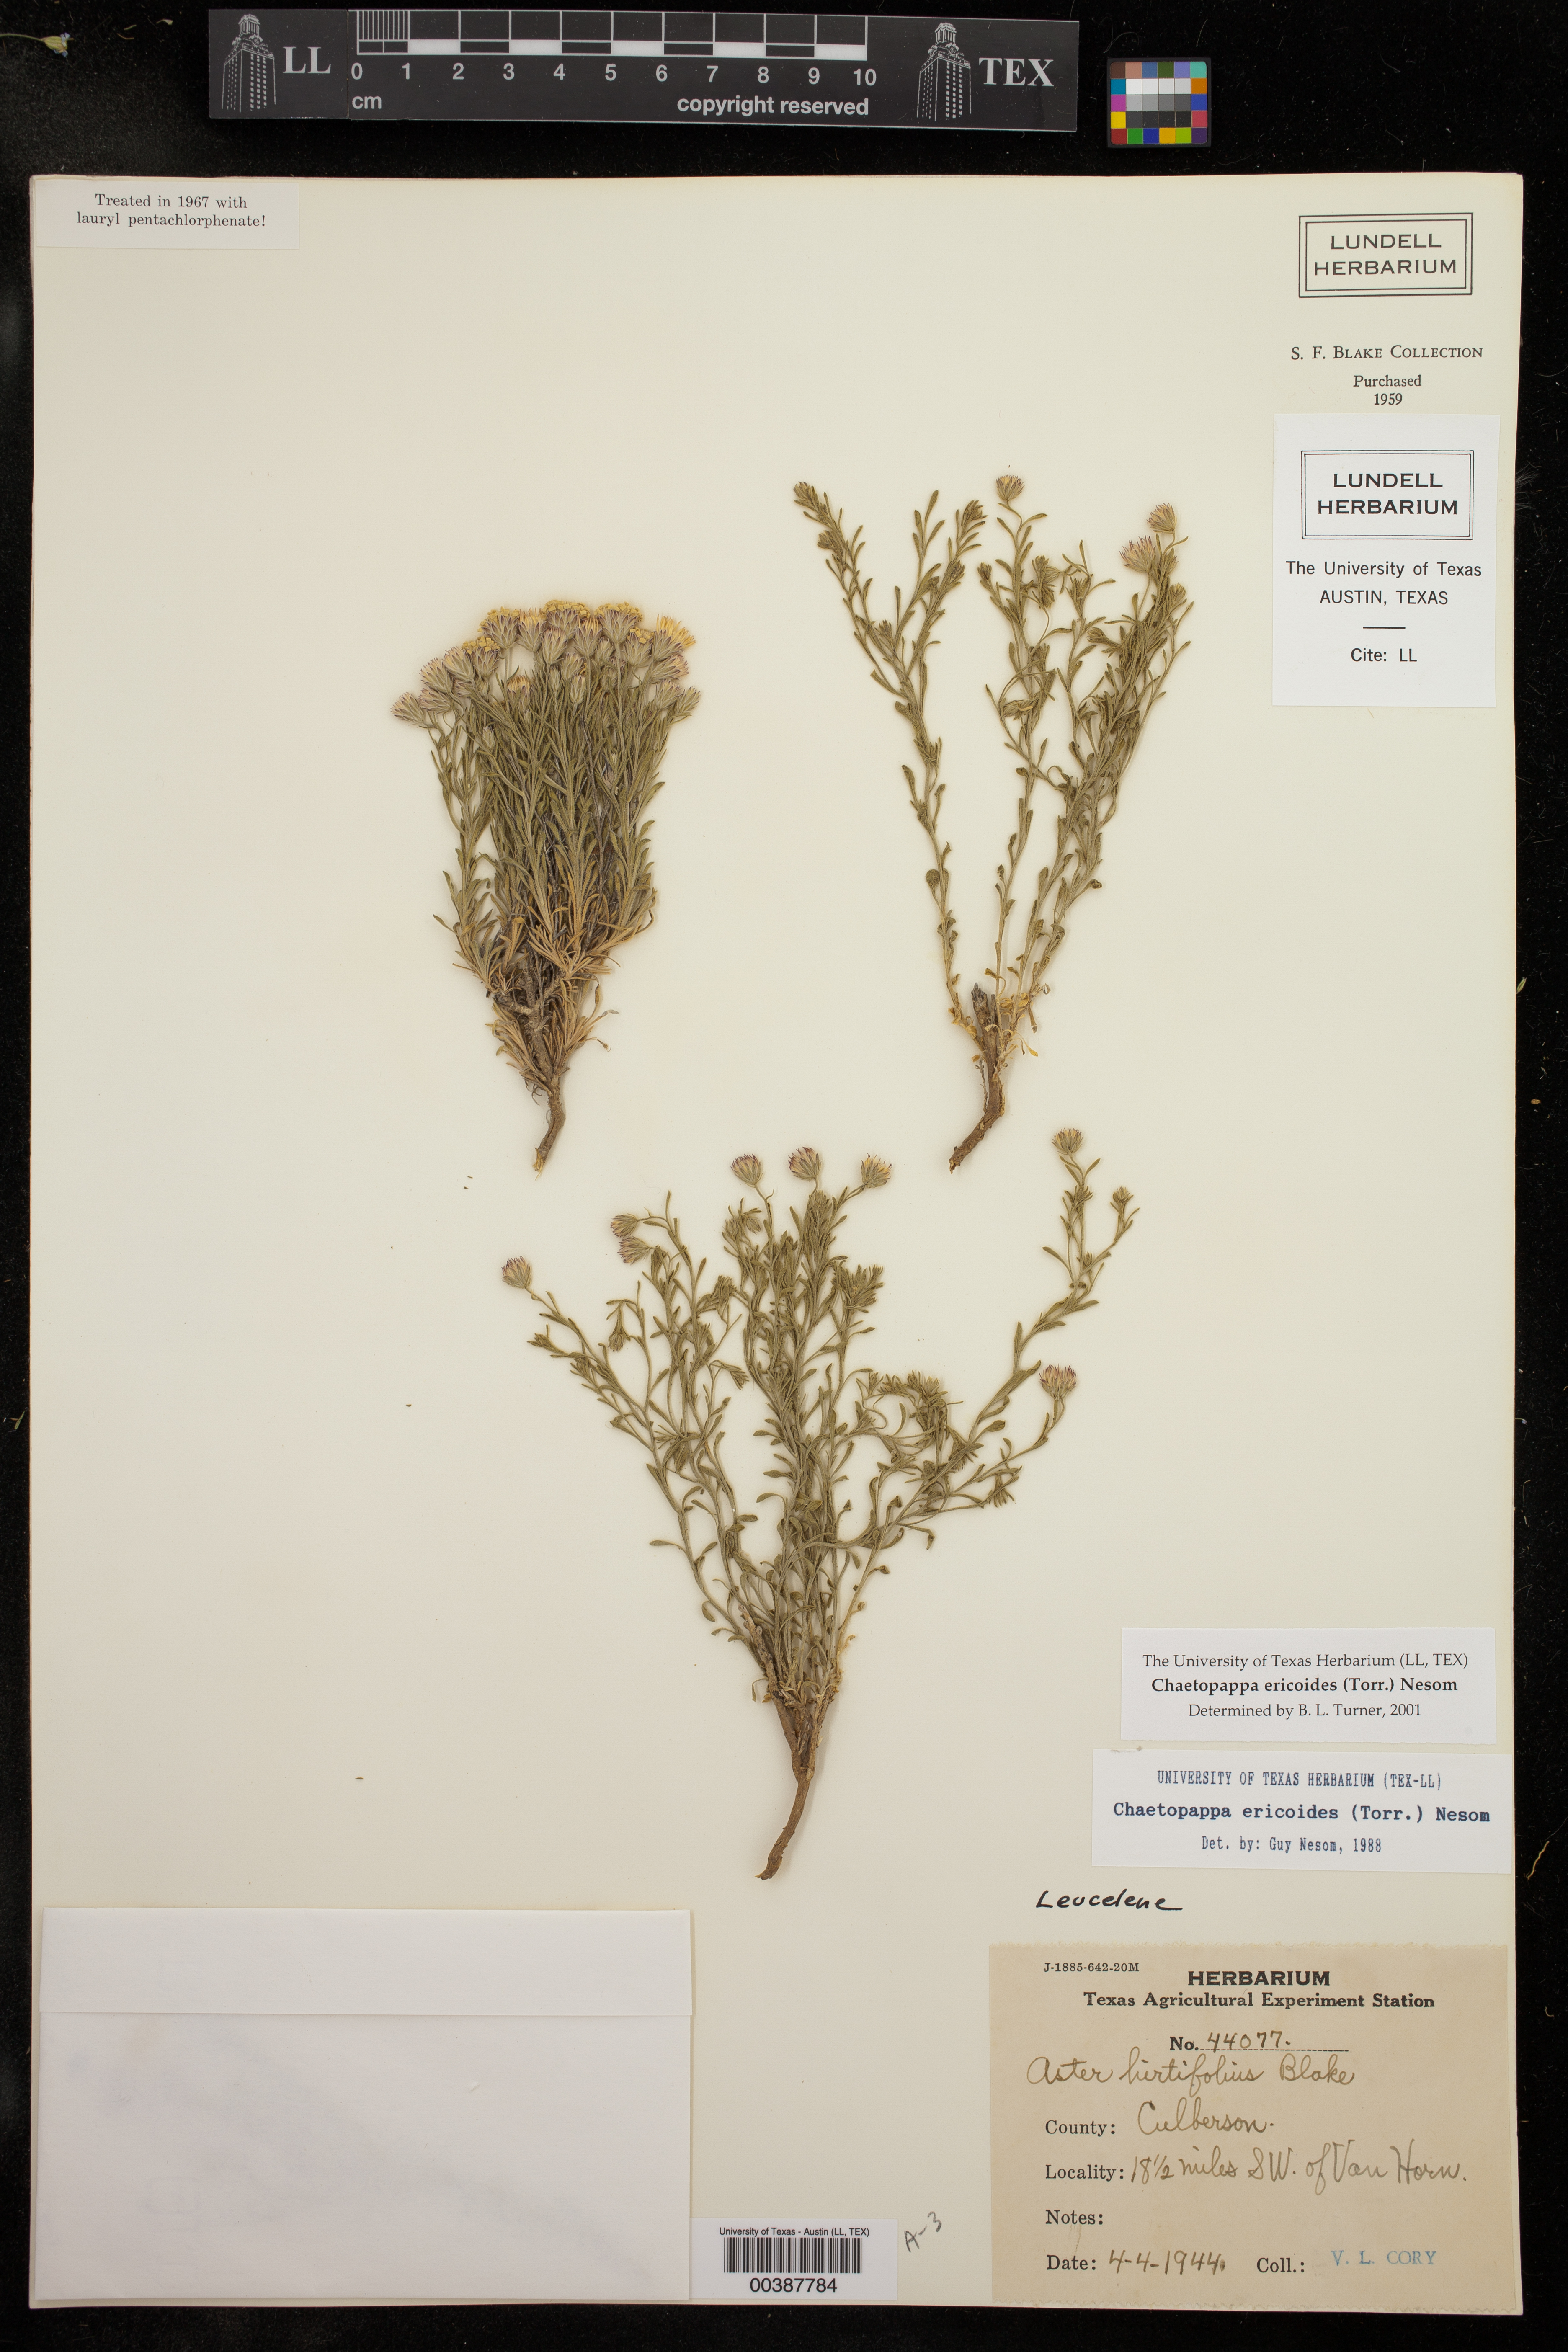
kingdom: Plantae
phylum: Tracheophyta
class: Magnoliopsida
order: Asterales
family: Asteraceae
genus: Chaetopappa
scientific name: Chaetopappa ericoides
